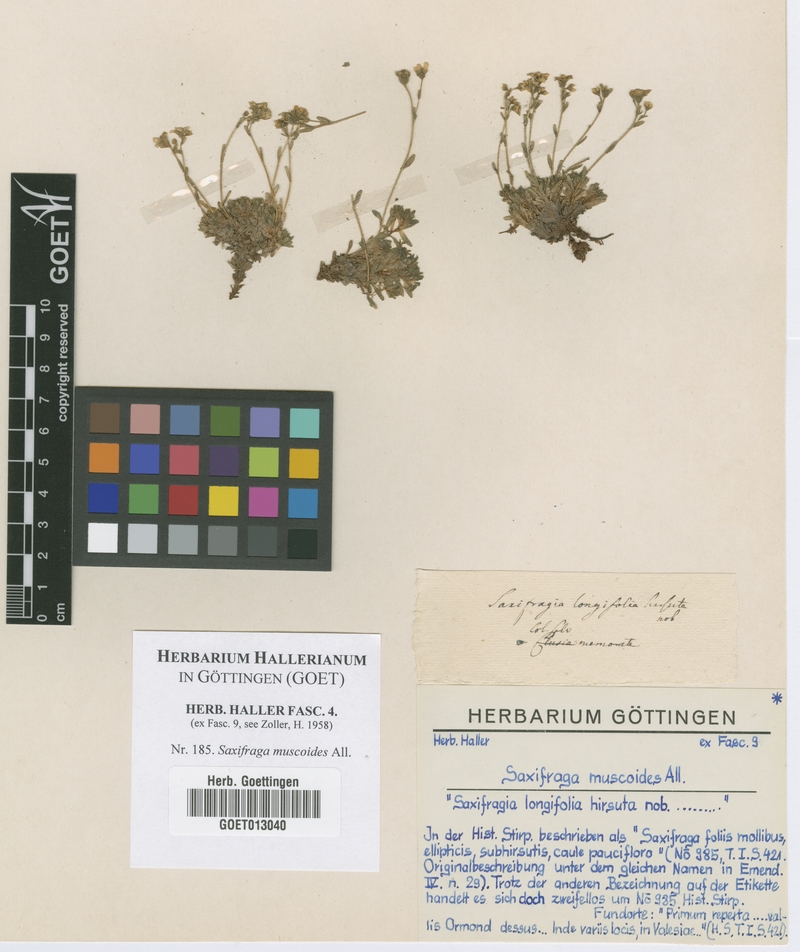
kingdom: Plantae
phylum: Tracheophyta
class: Magnoliopsida
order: Saxifragales
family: Saxifragaceae
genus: Saxifraga
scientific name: Saxifraga muscoides
